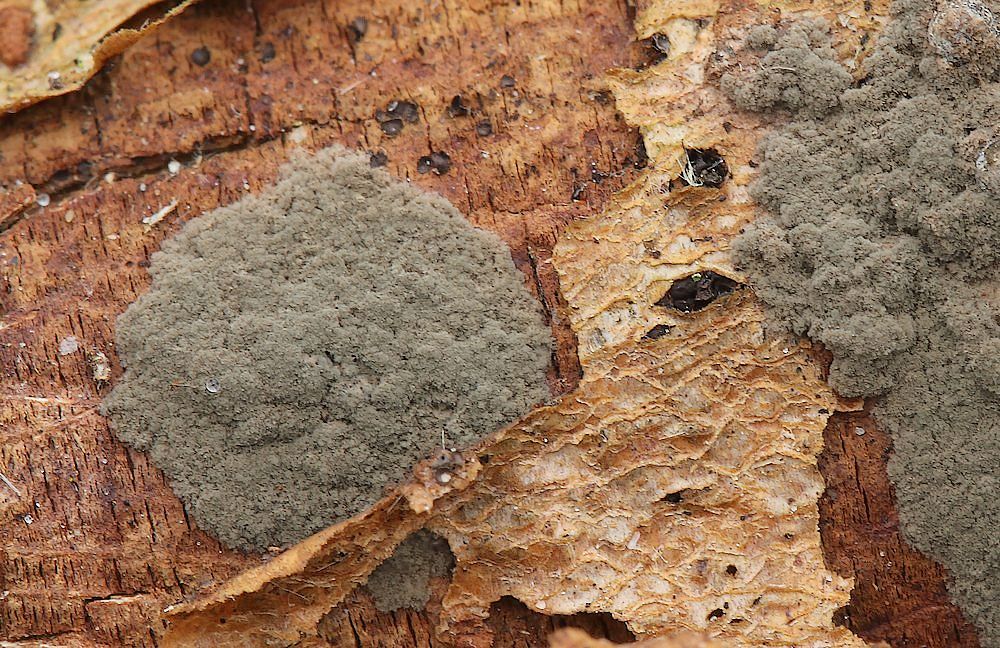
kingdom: Fungi
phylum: Ascomycota
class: Sordariomycetes
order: Xylariales
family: Xylariaceae
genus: Nemania
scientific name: Nemania
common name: kuldyne
